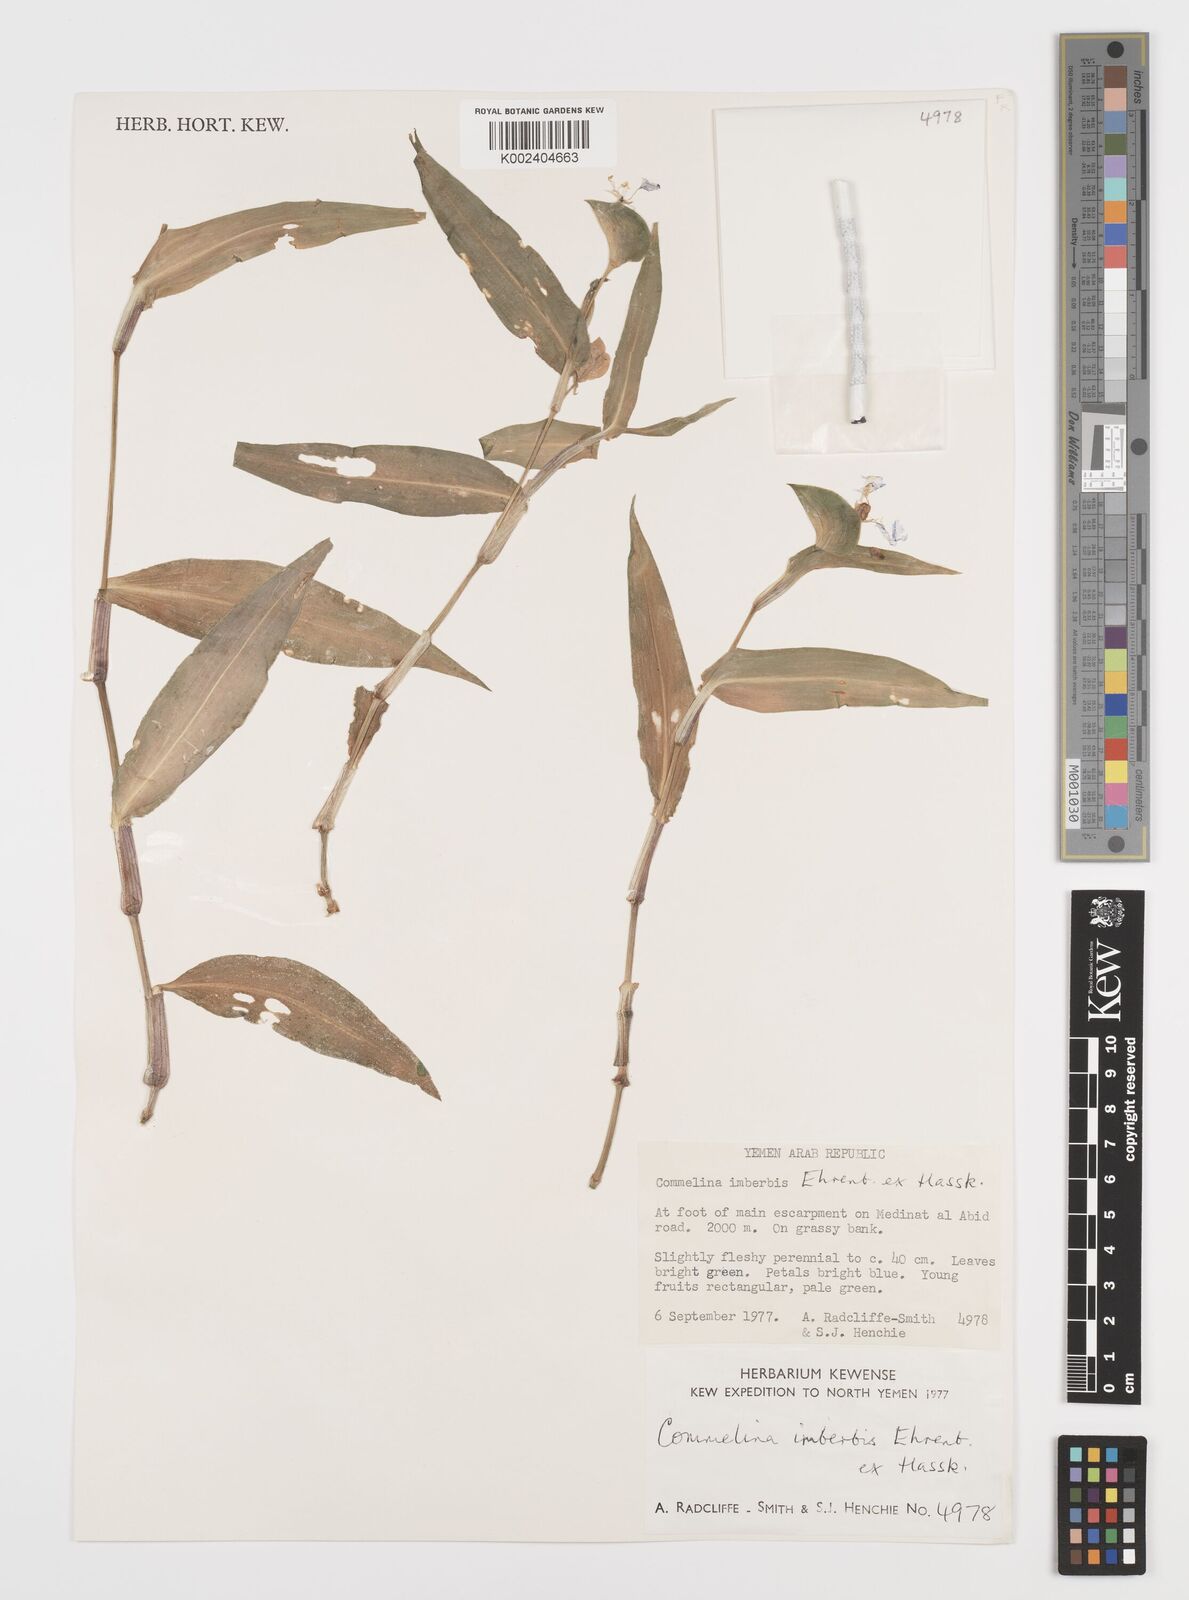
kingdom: Plantae
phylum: Tracheophyta
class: Liliopsida
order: Commelinales
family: Commelinaceae
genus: Commelina
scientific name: Commelina imberbis
